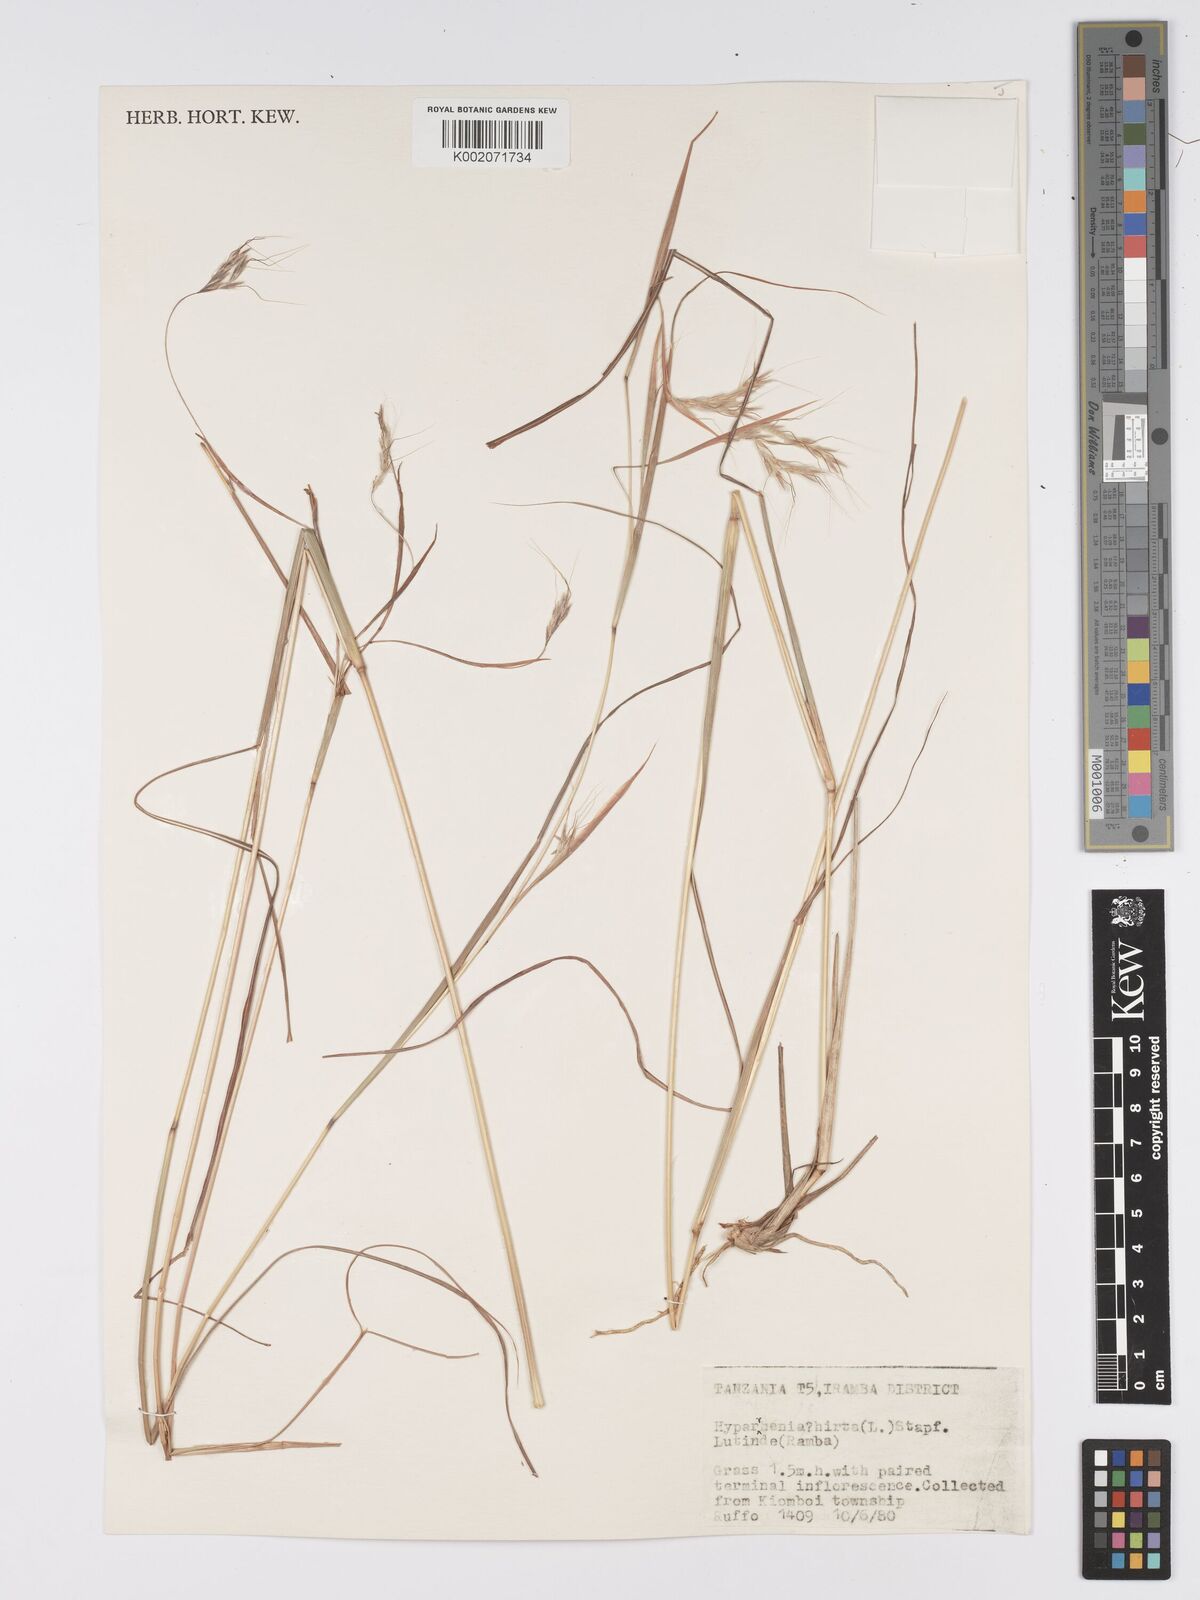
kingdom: Plantae
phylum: Tracheophyta
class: Liliopsida
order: Poales
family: Poaceae
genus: Hyparrhenia
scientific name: Hyparrhenia hirta
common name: Thatching grass
